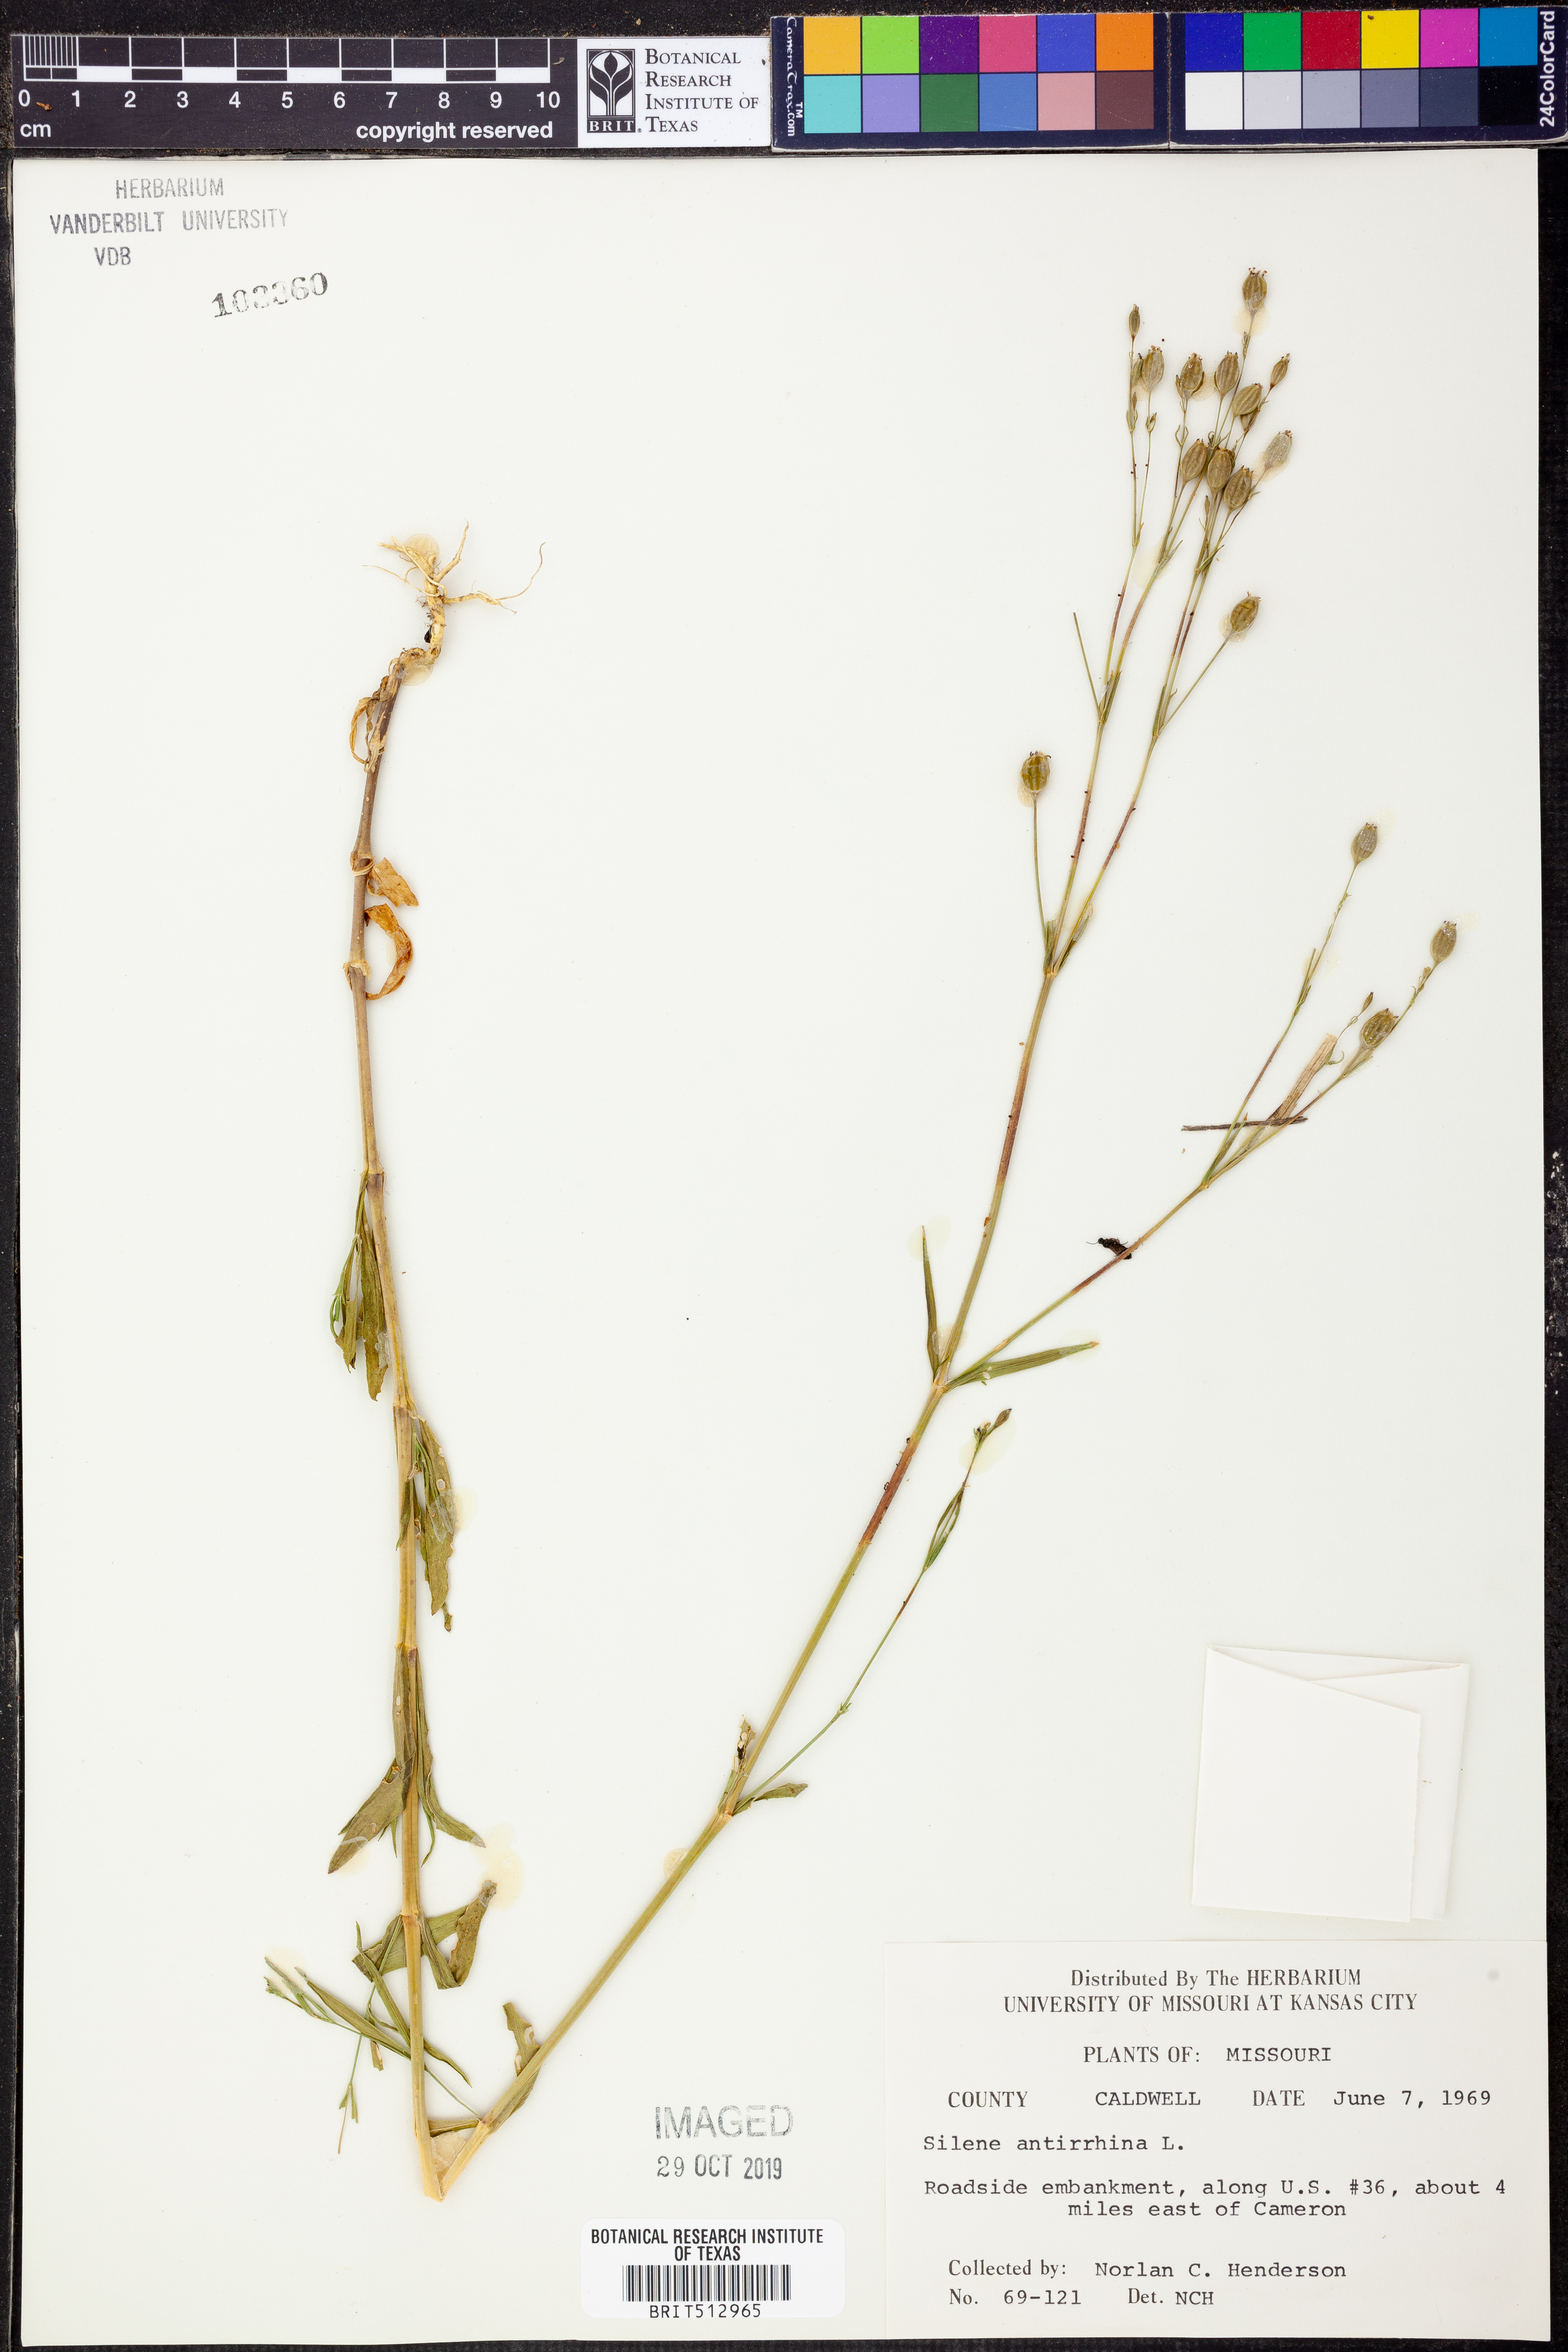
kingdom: Plantae
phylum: Tracheophyta
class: Magnoliopsida
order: Caryophyllales
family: Caryophyllaceae
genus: Silene
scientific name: Silene antirrhina
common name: Sleepy catchfly
